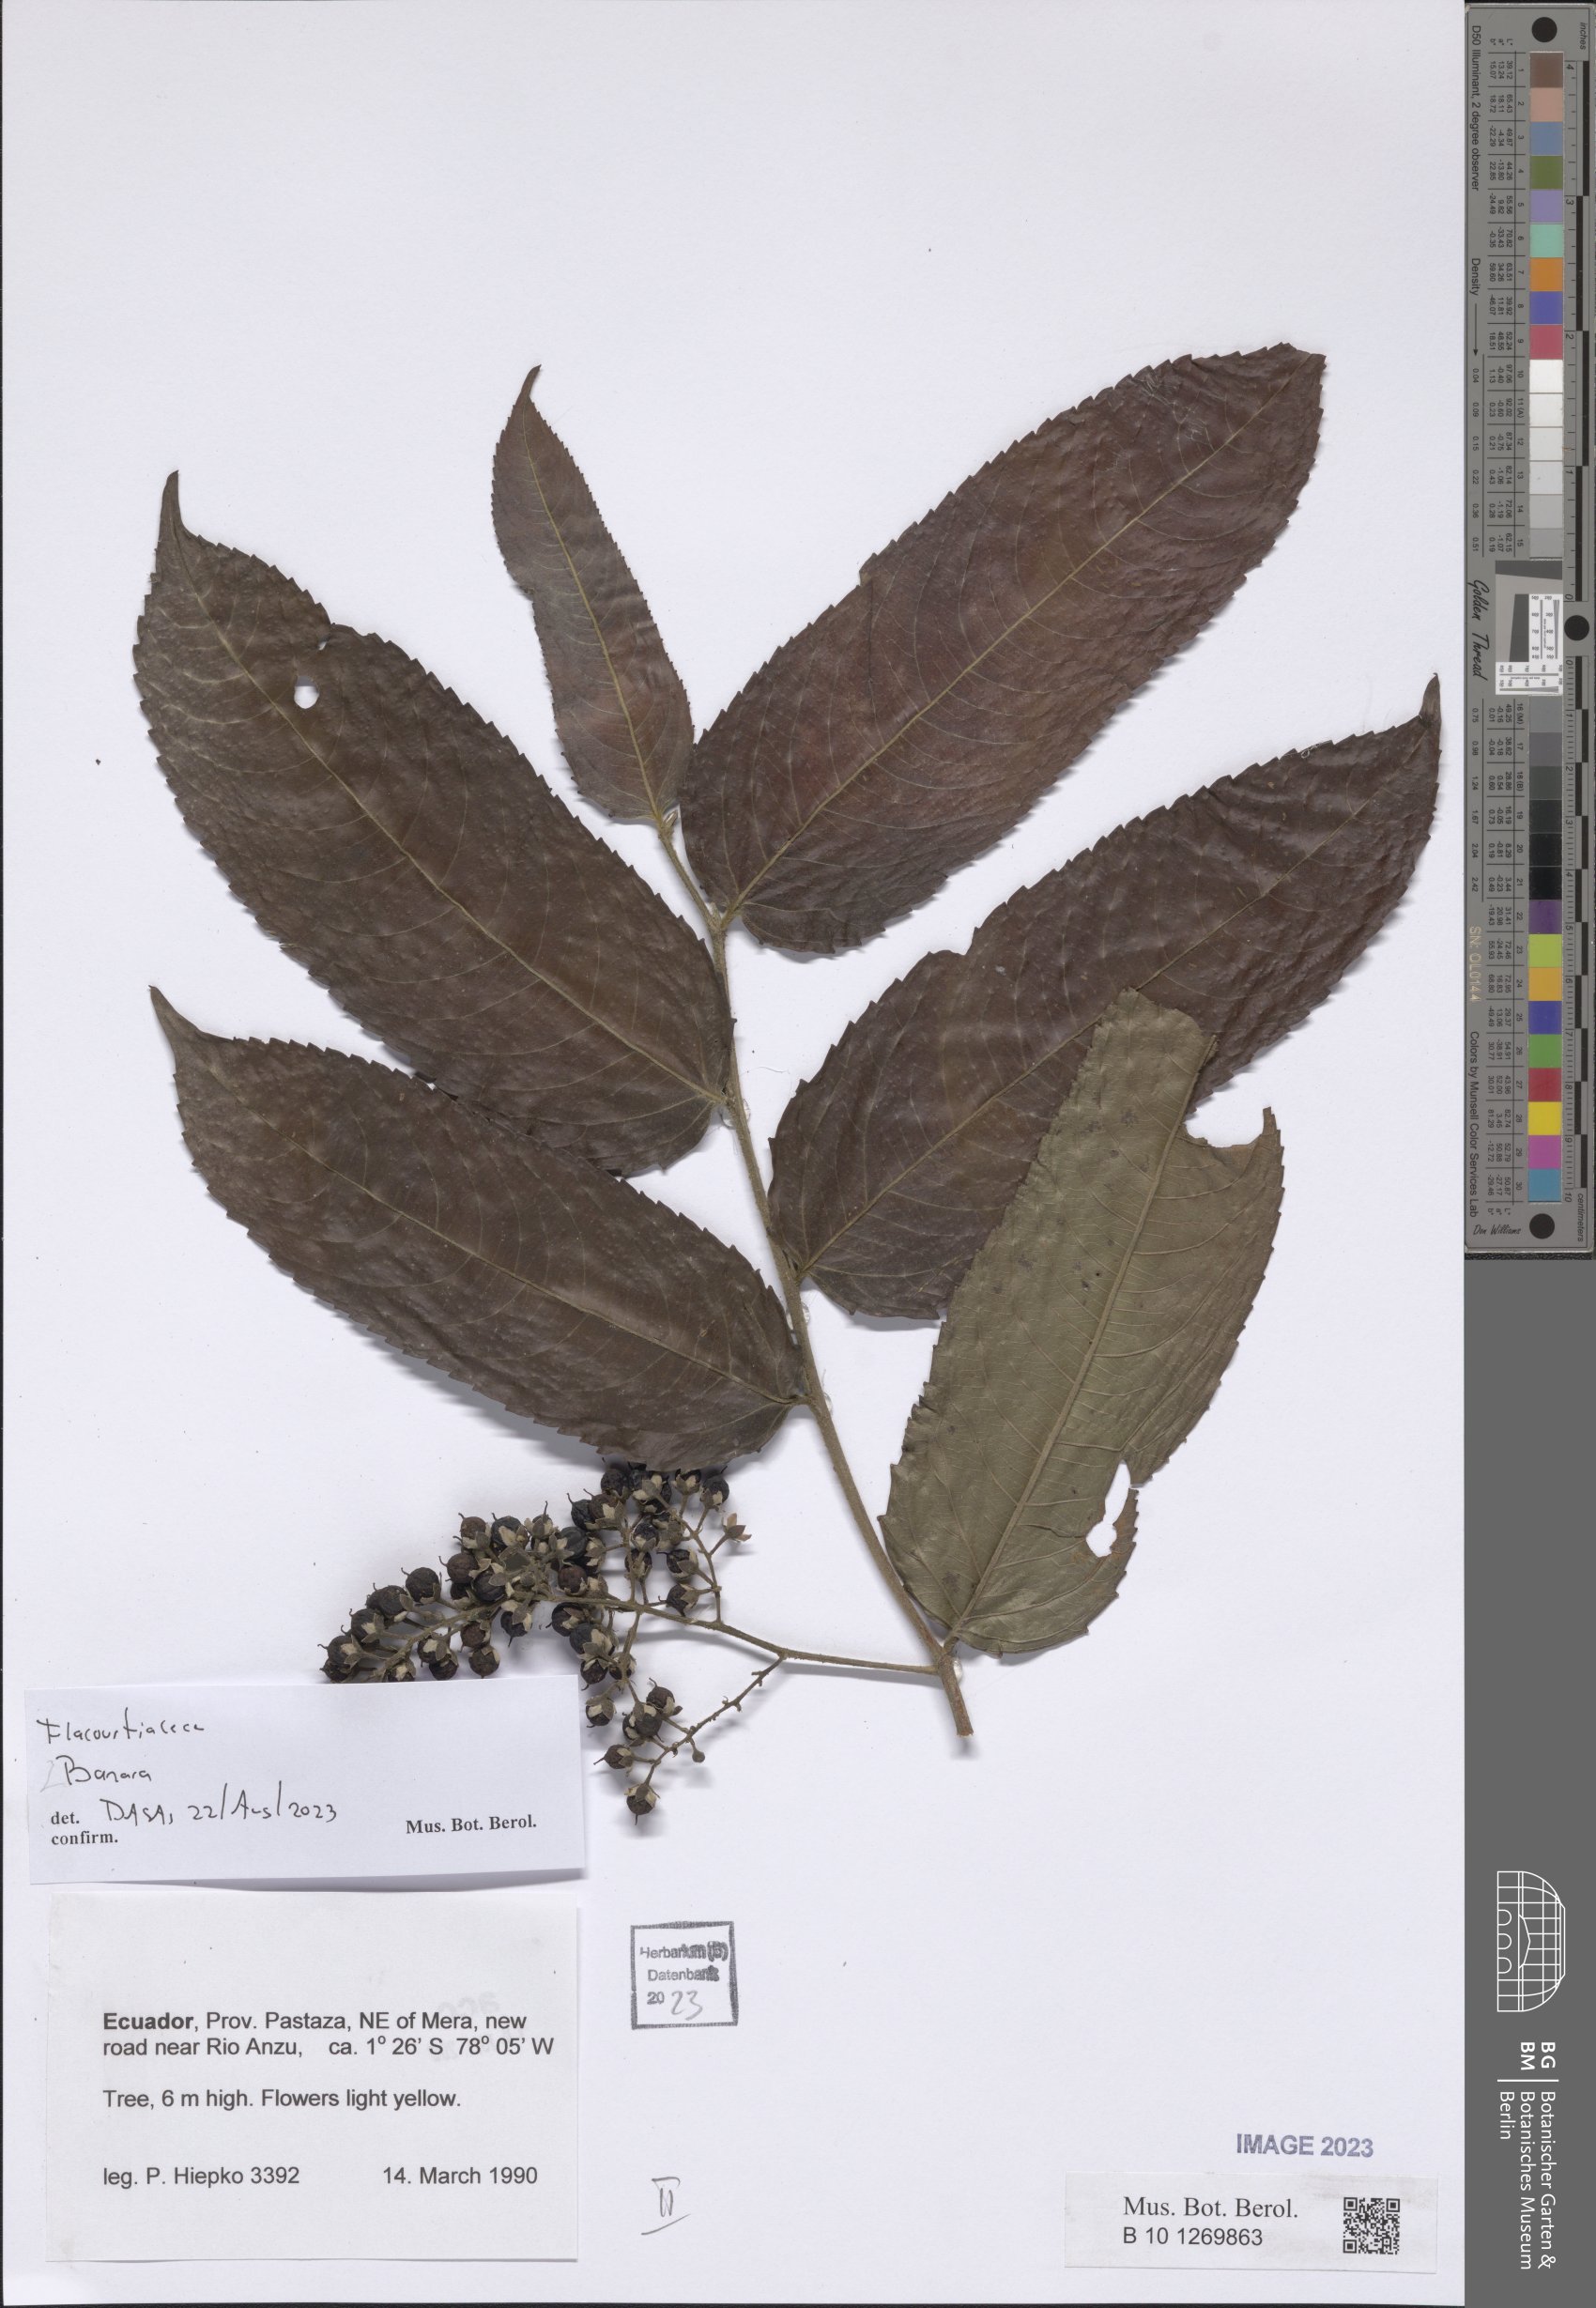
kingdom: Plantae
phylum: Tracheophyta
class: Magnoliopsida
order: Malpighiales
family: Salicaceae
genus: Banara
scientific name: Banara
